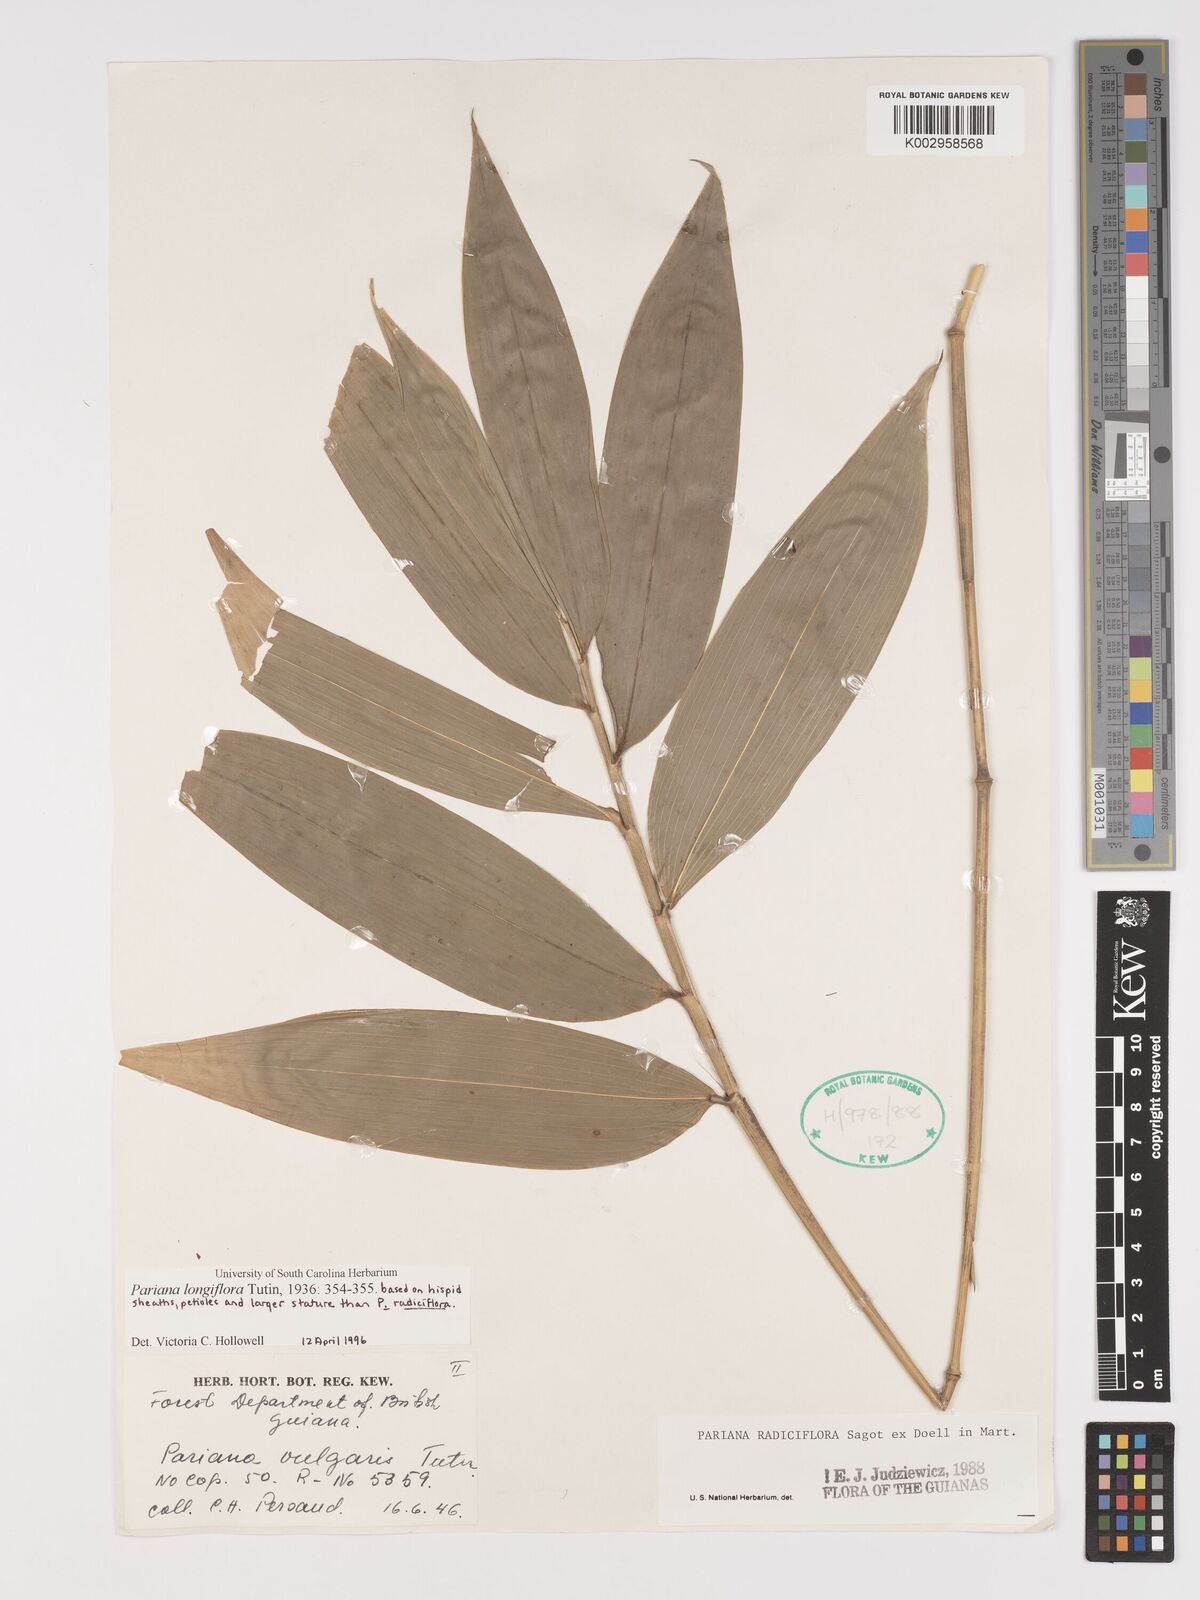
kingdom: Plantae
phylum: Tracheophyta
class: Liliopsida
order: Poales
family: Poaceae
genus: Pariana
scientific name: Pariana radiciflora
